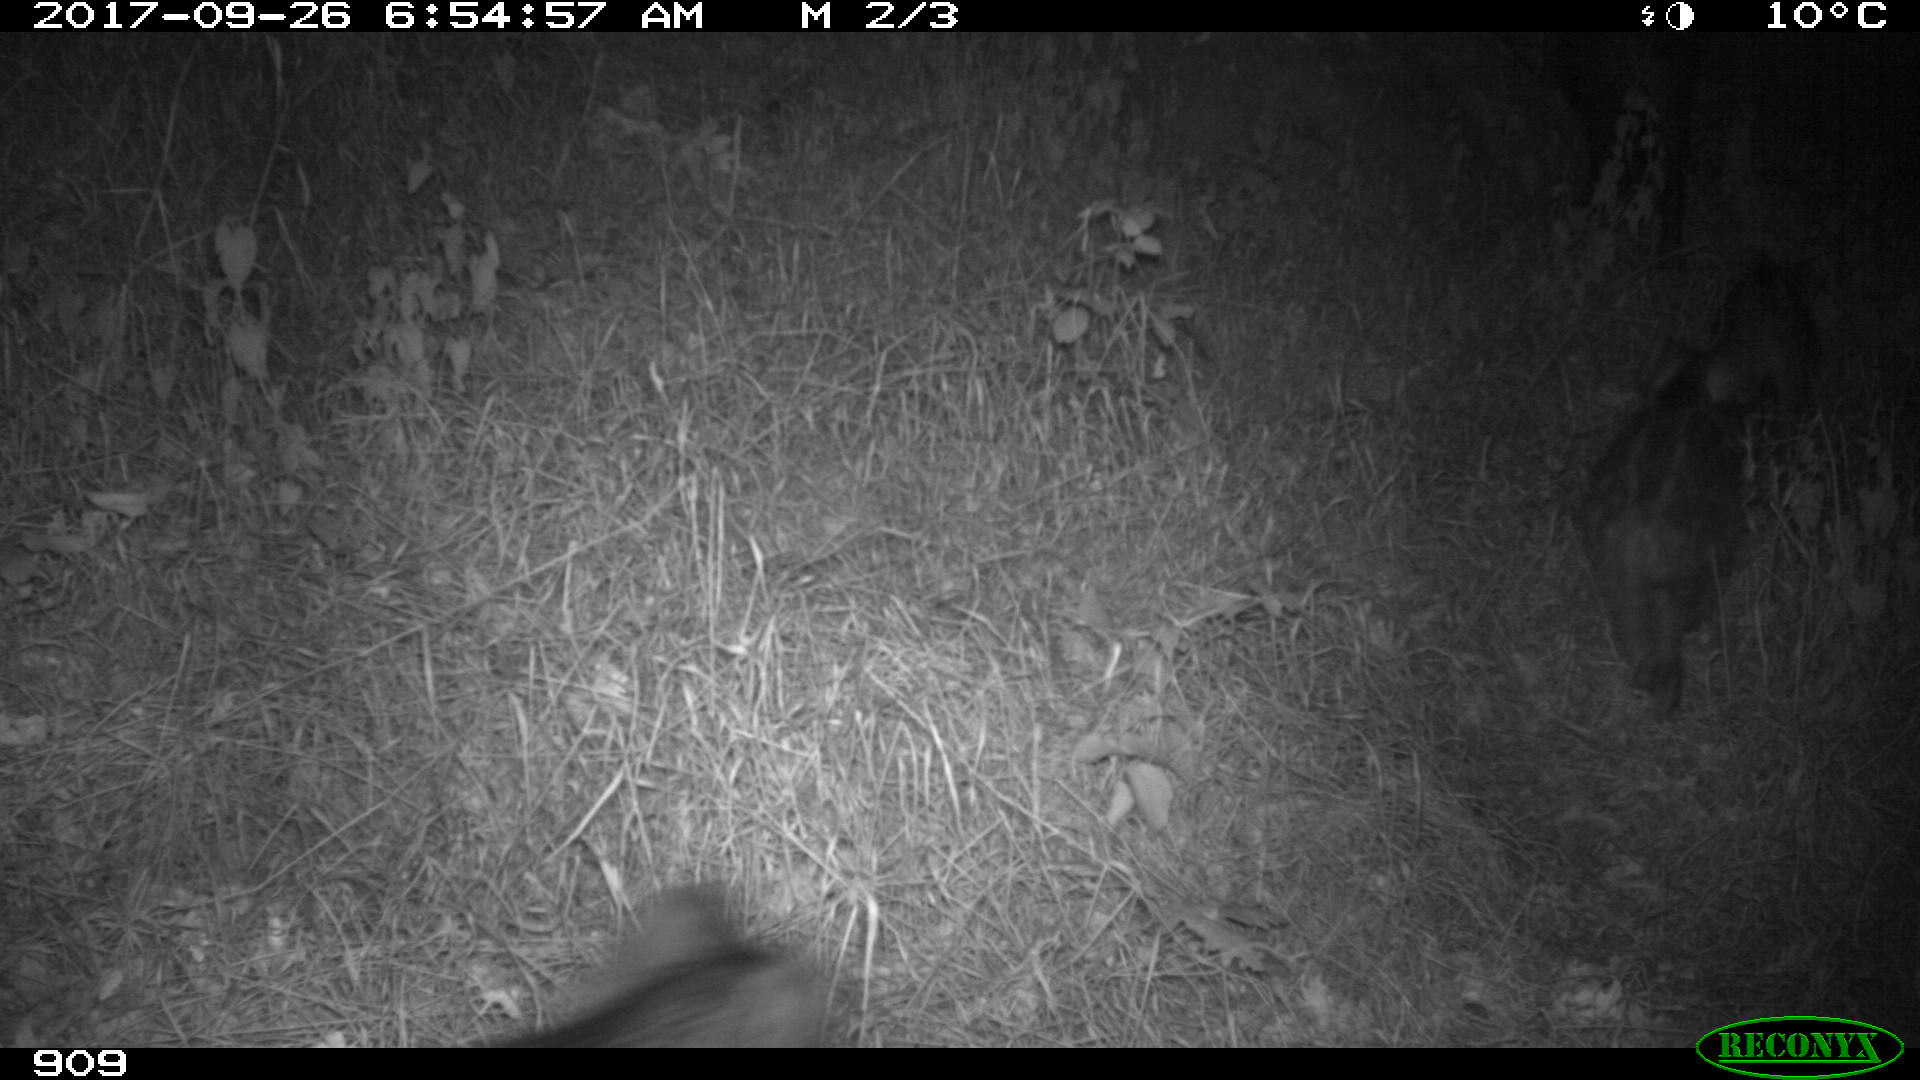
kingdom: Animalia
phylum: Chordata
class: Mammalia
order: Artiodactyla
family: Suidae
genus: Sus
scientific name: Sus scrofa
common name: Wild boar
